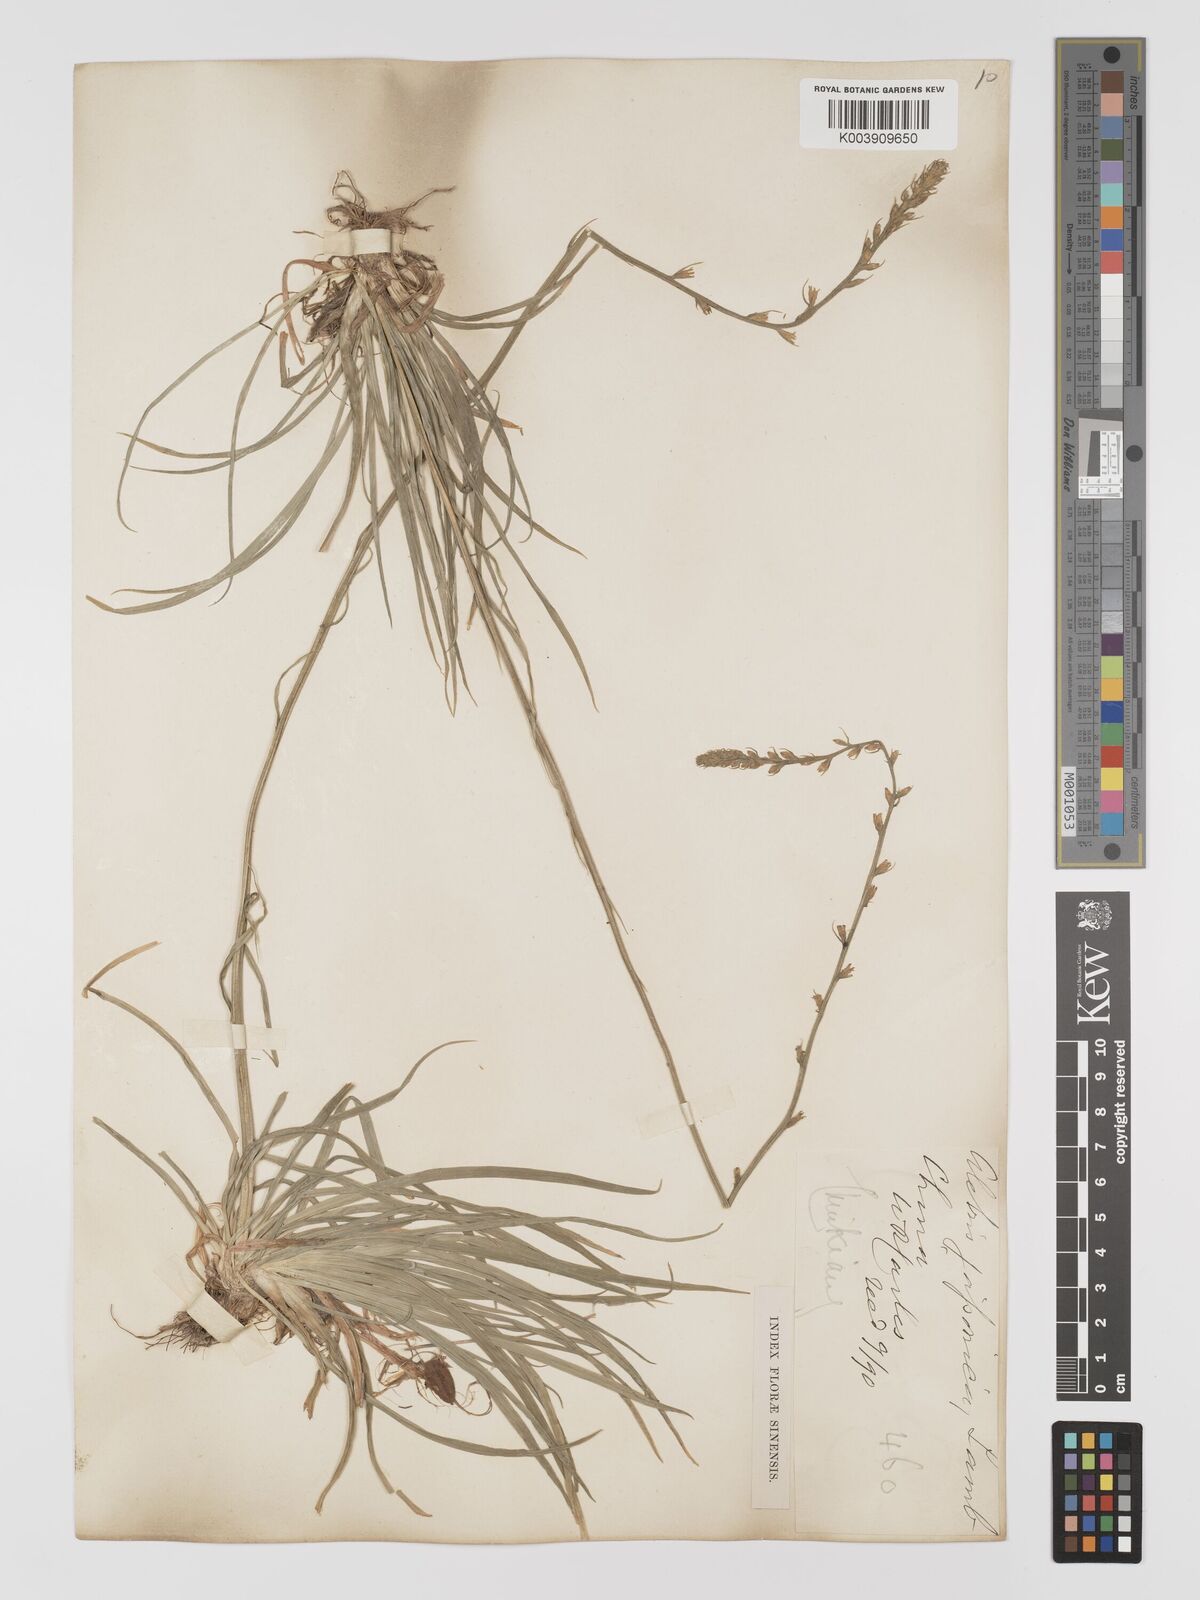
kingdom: Plantae
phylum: Tracheophyta
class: Liliopsida
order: Dioscoreales
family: Nartheciaceae
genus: Aletris
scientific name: Aletris spicata
